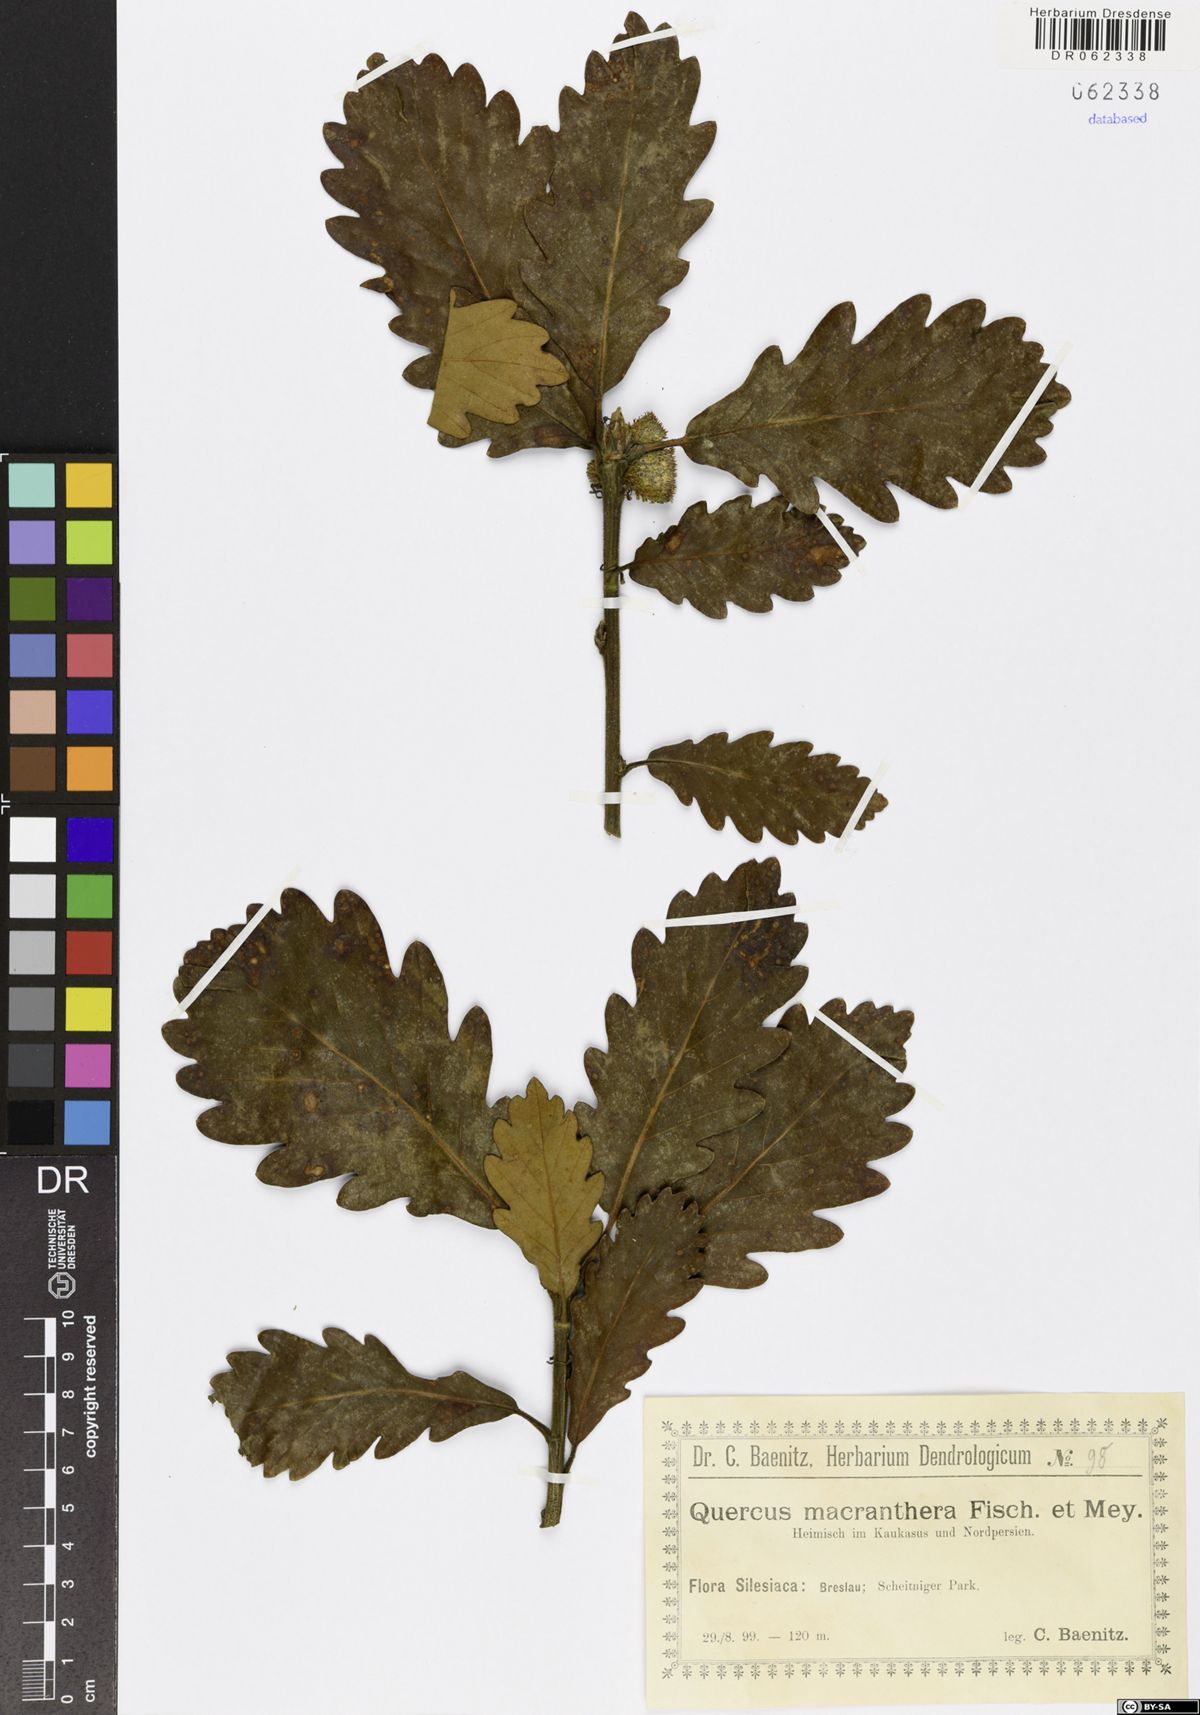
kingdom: Plantae
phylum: Tracheophyta
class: Magnoliopsida
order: Fagales
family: Fagaceae
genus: Quercus
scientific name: Quercus macranthera
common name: Caucasian oak
